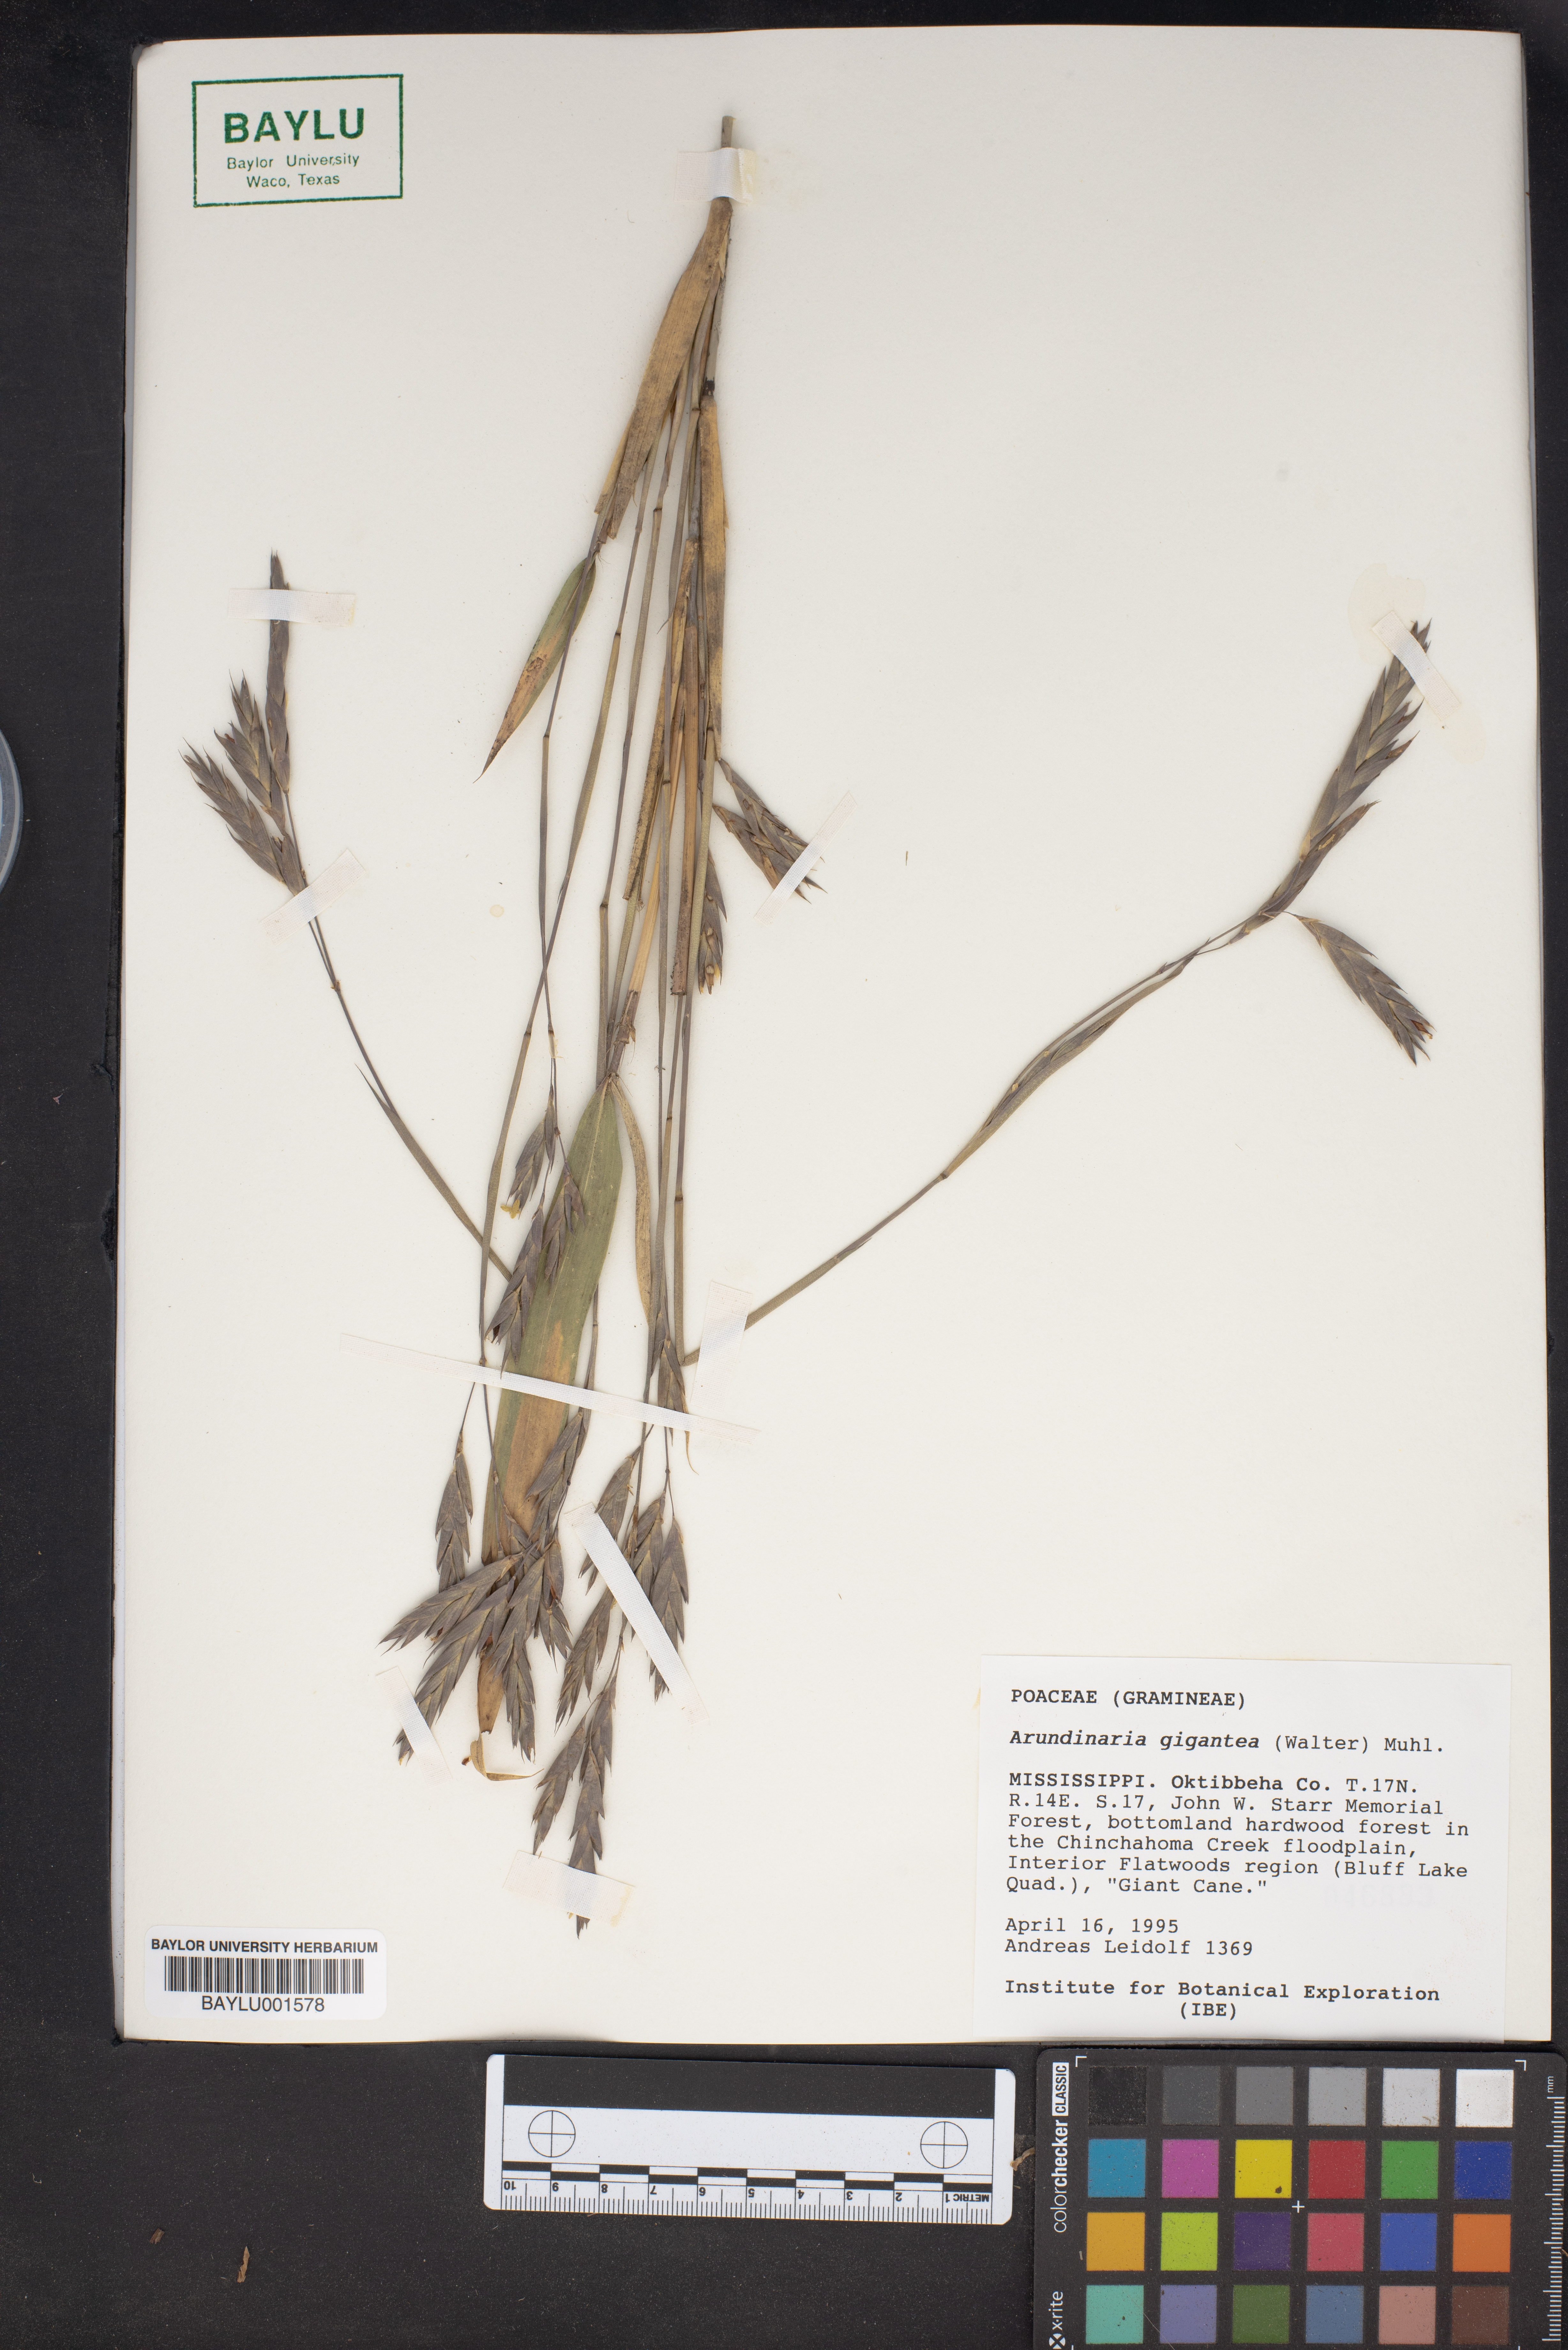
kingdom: Plantae
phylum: Tracheophyta
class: Liliopsida
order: Poales
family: Poaceae
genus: Arundinaria
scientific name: Arundinaria gigantea
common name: Giant cane
